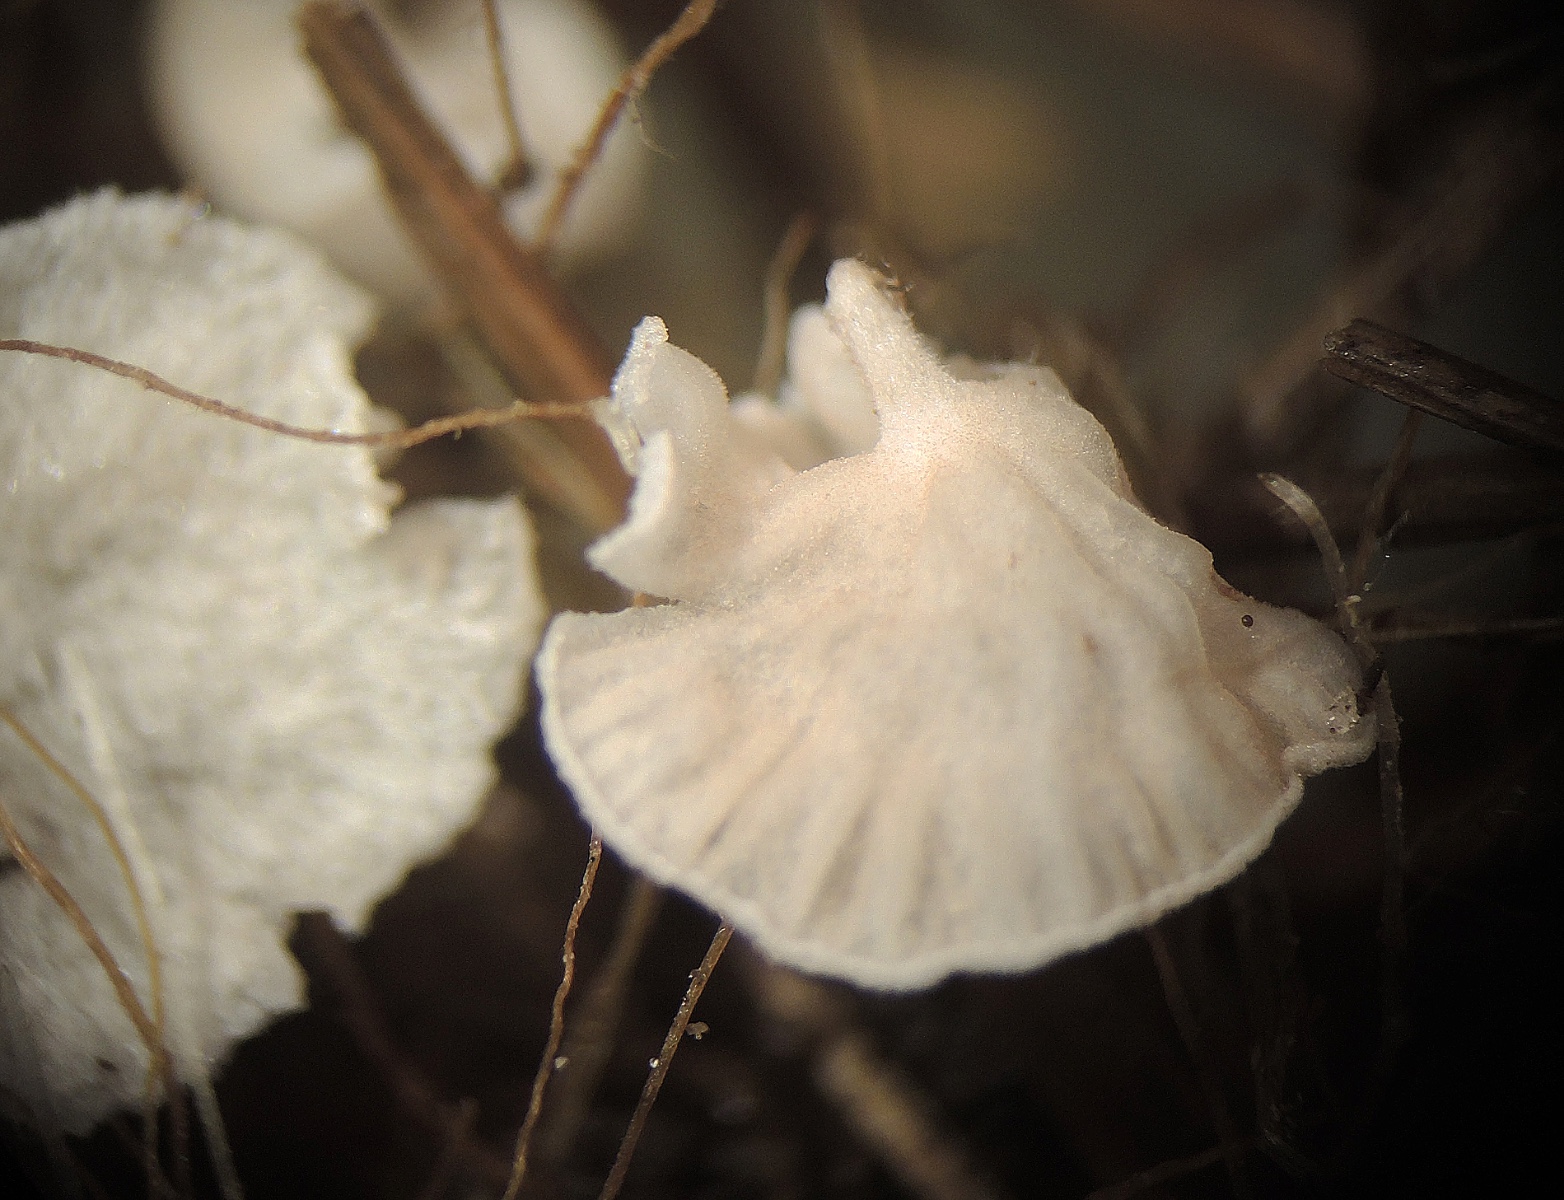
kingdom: Fungi
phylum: Basidiomycota
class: Agaricomycetes
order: Agaricales
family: Entolomataceae
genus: Entoloma
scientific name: Entoloma
